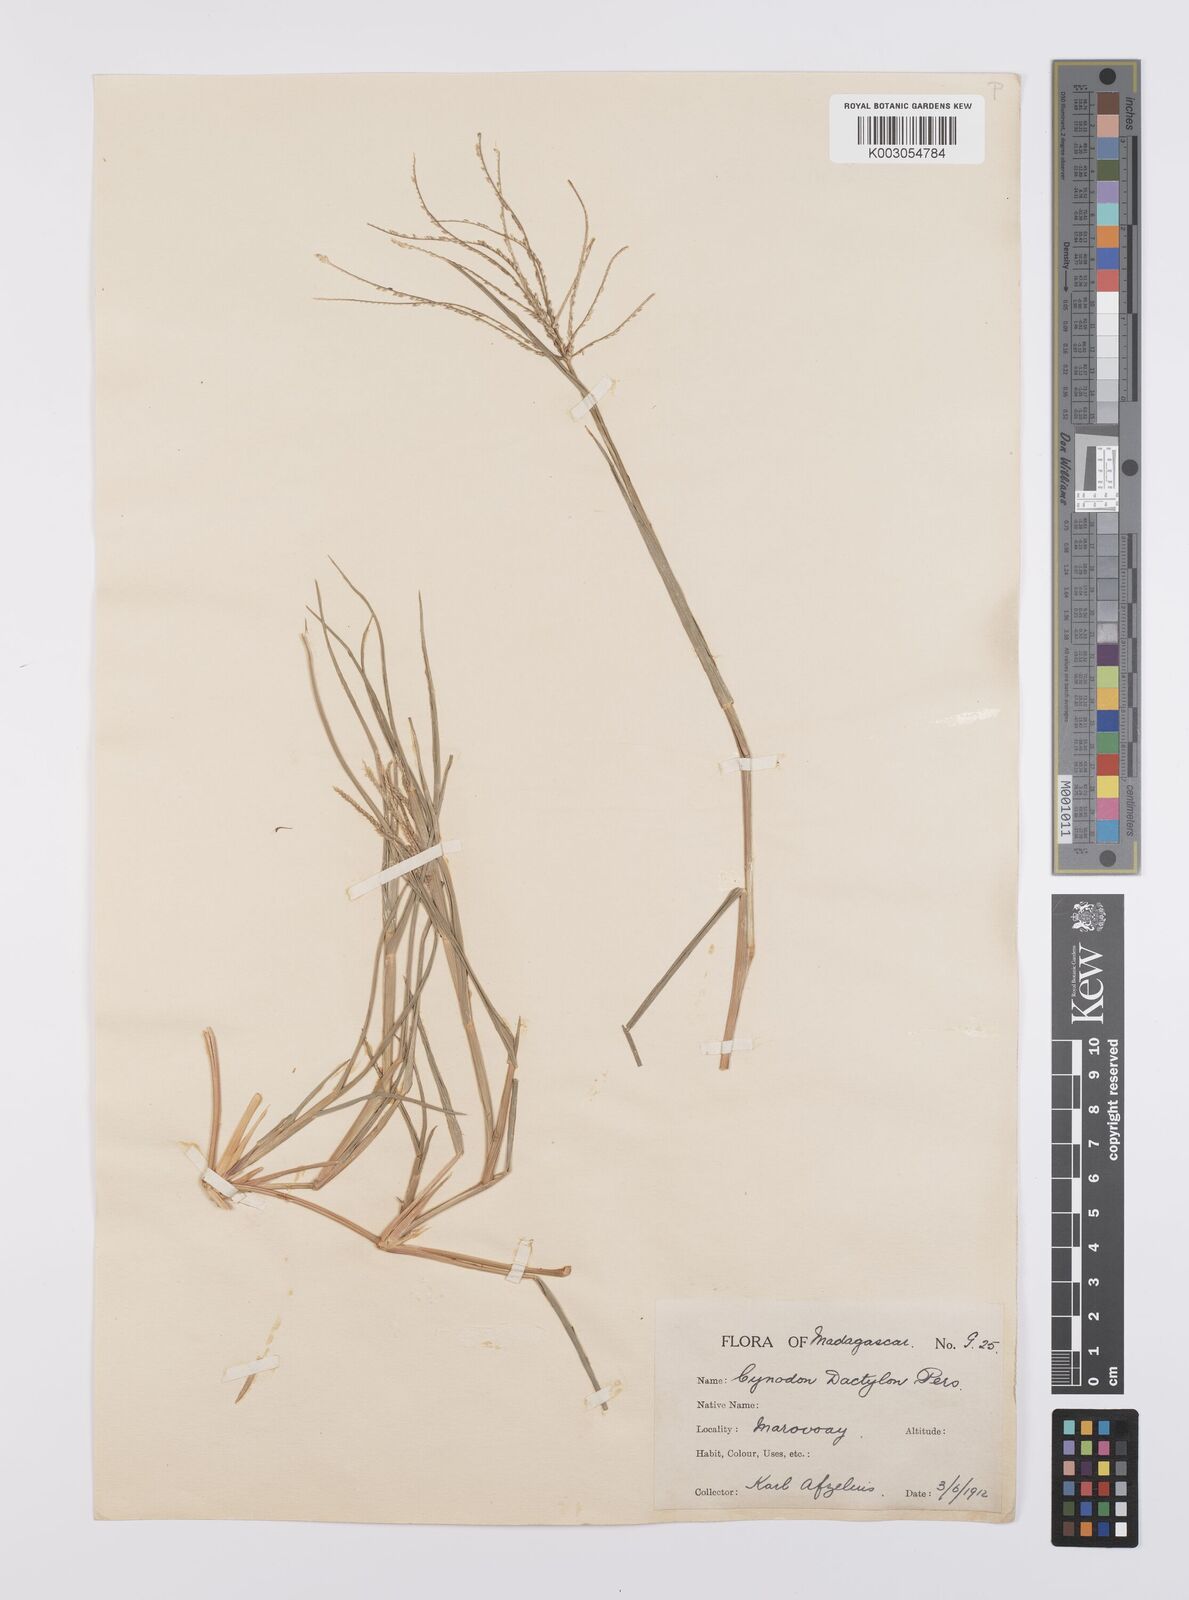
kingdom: Plantae
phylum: Tracheophyta
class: Liliopsida
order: Poales
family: Poaceae
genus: Cynodon
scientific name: Cynodon radiatus
